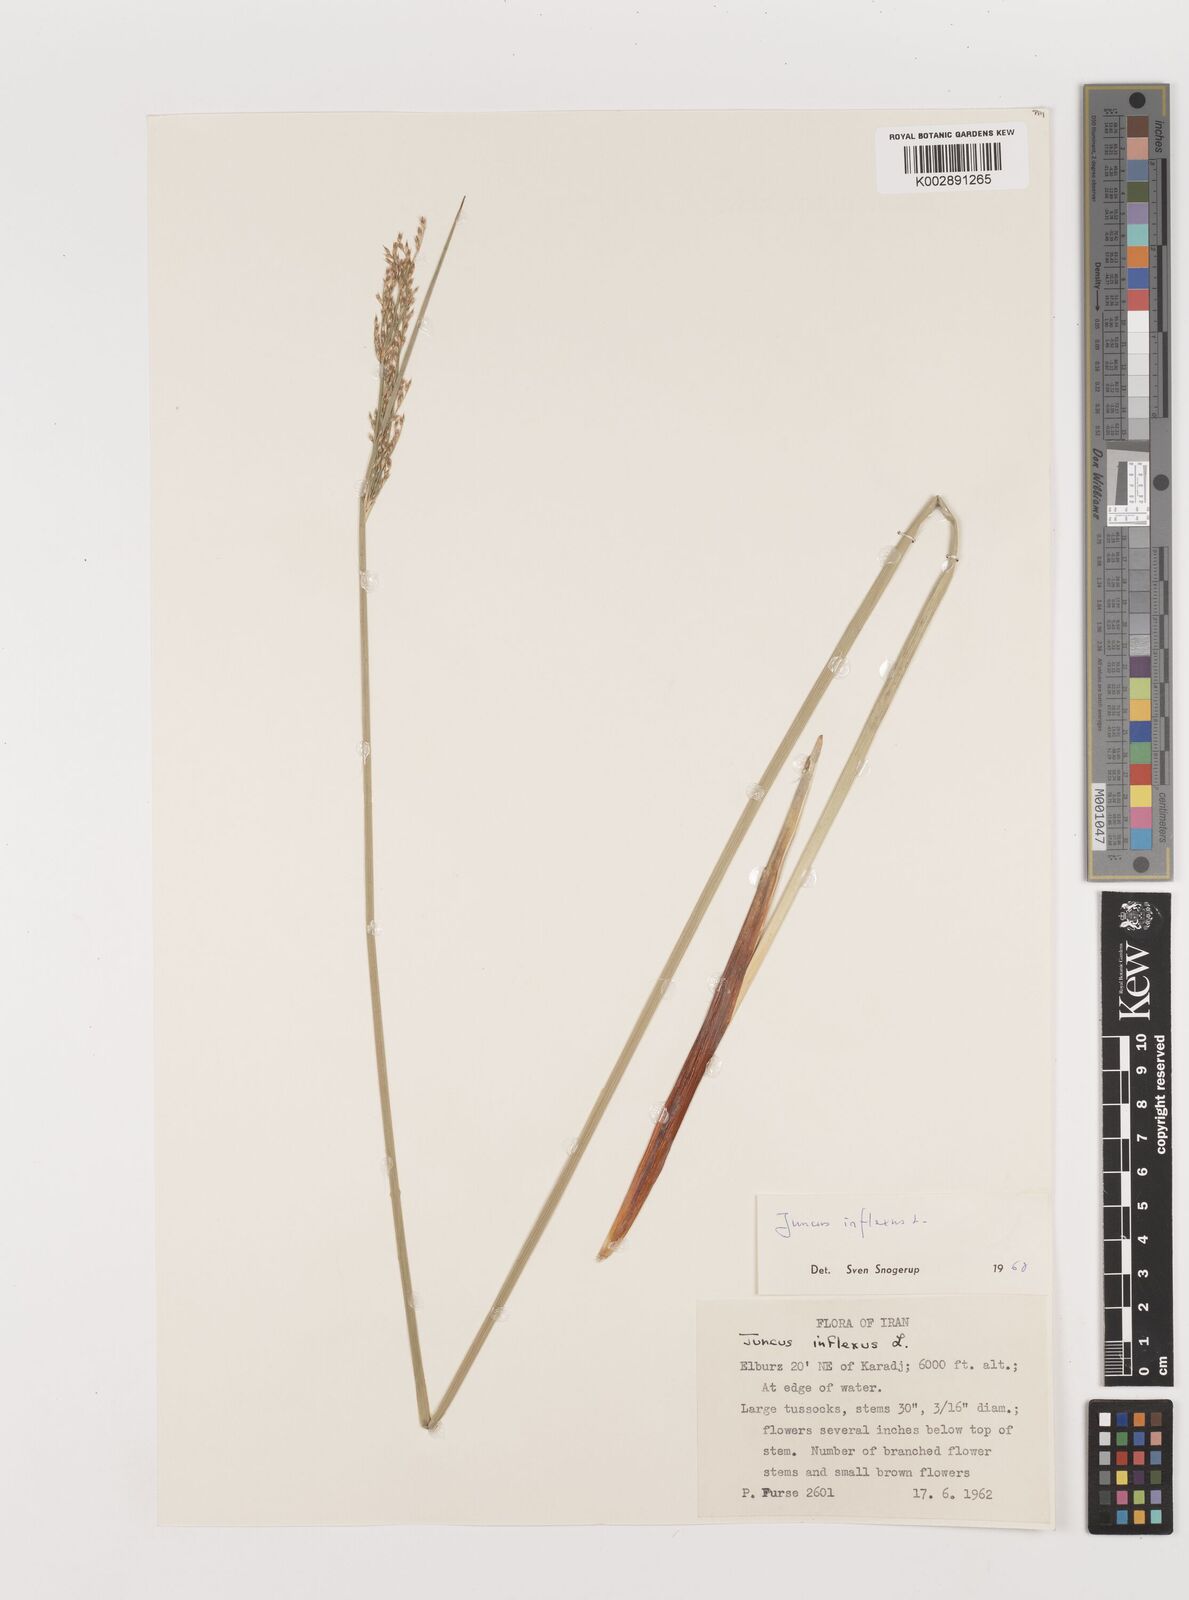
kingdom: Plantae
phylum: Tracheophyta
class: Liliopsida
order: Poales
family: Juncaceae
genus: Juncus
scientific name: Juncus inflexus
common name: Hard rush
